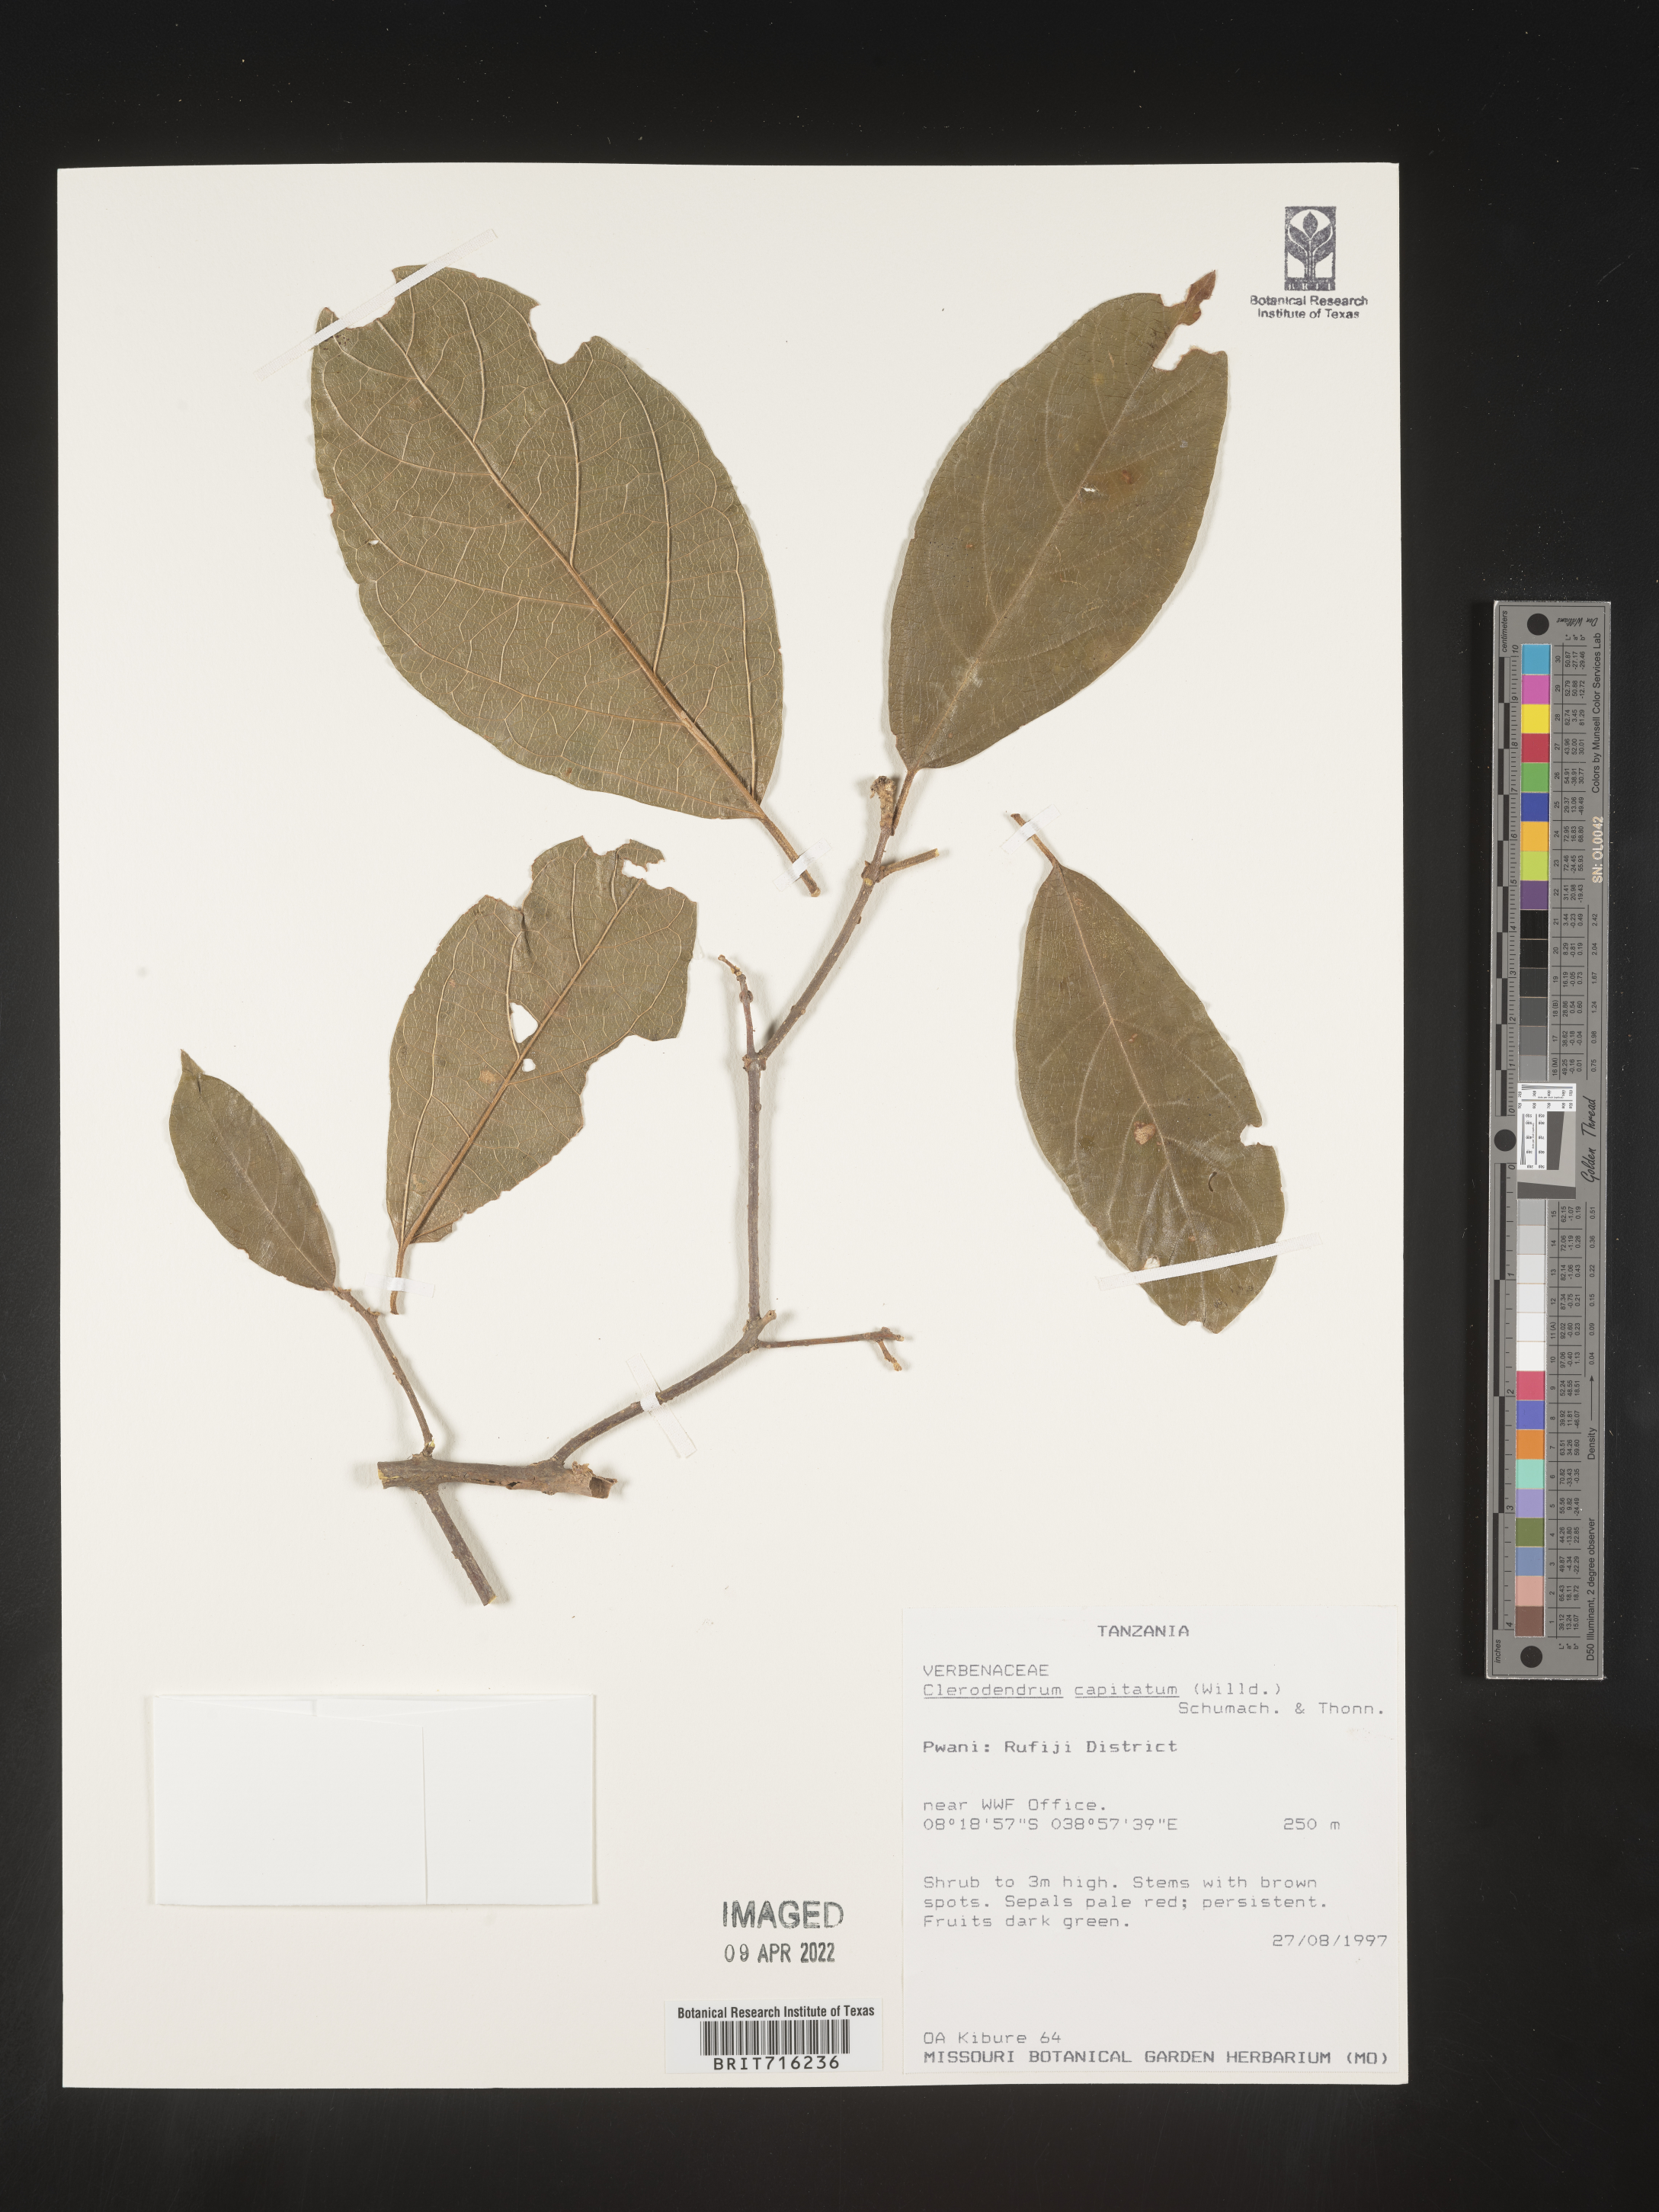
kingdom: Plantae
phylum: Tracheophyta
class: Magnoliopsida
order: Lamiales
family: Lamiaceae
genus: Clerodendrum
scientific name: Clerodendrum
